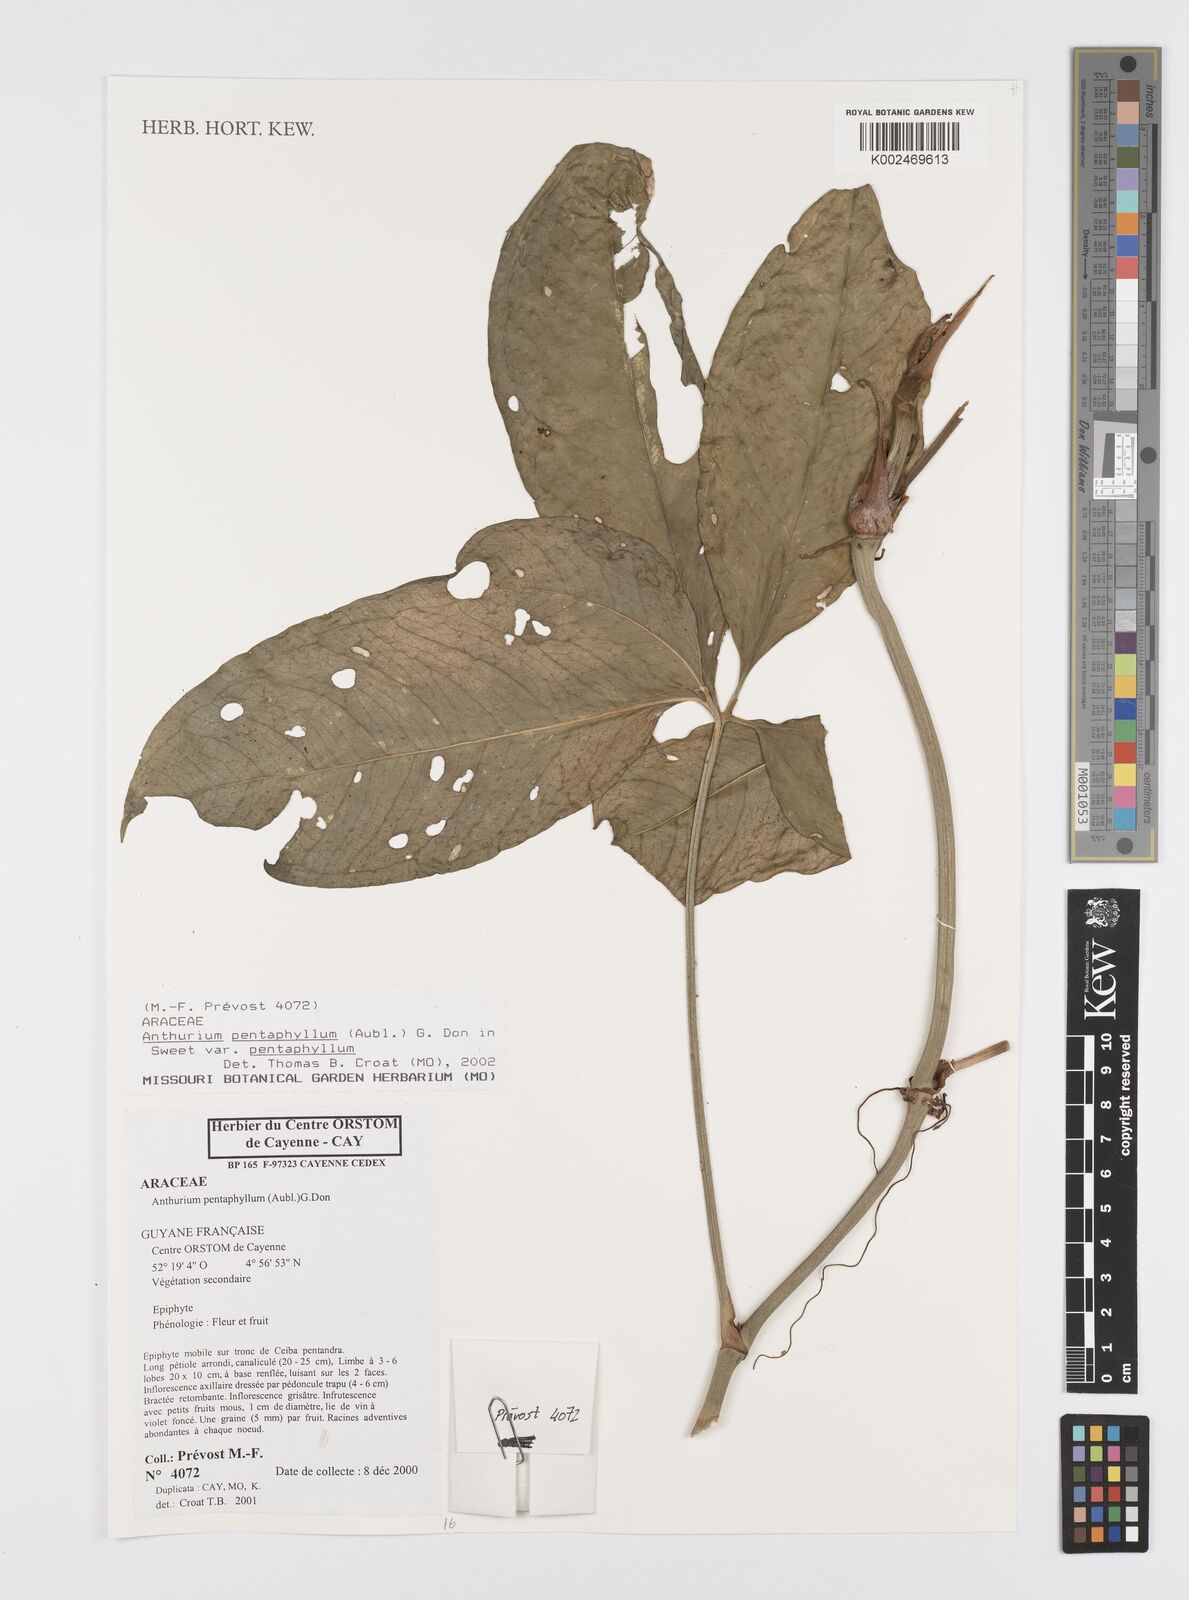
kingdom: Plantae
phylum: Tracheophyta
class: Liliopsida
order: Alismatales
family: Araceae
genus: Anthurium
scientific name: Anthurium pentaphyllum
